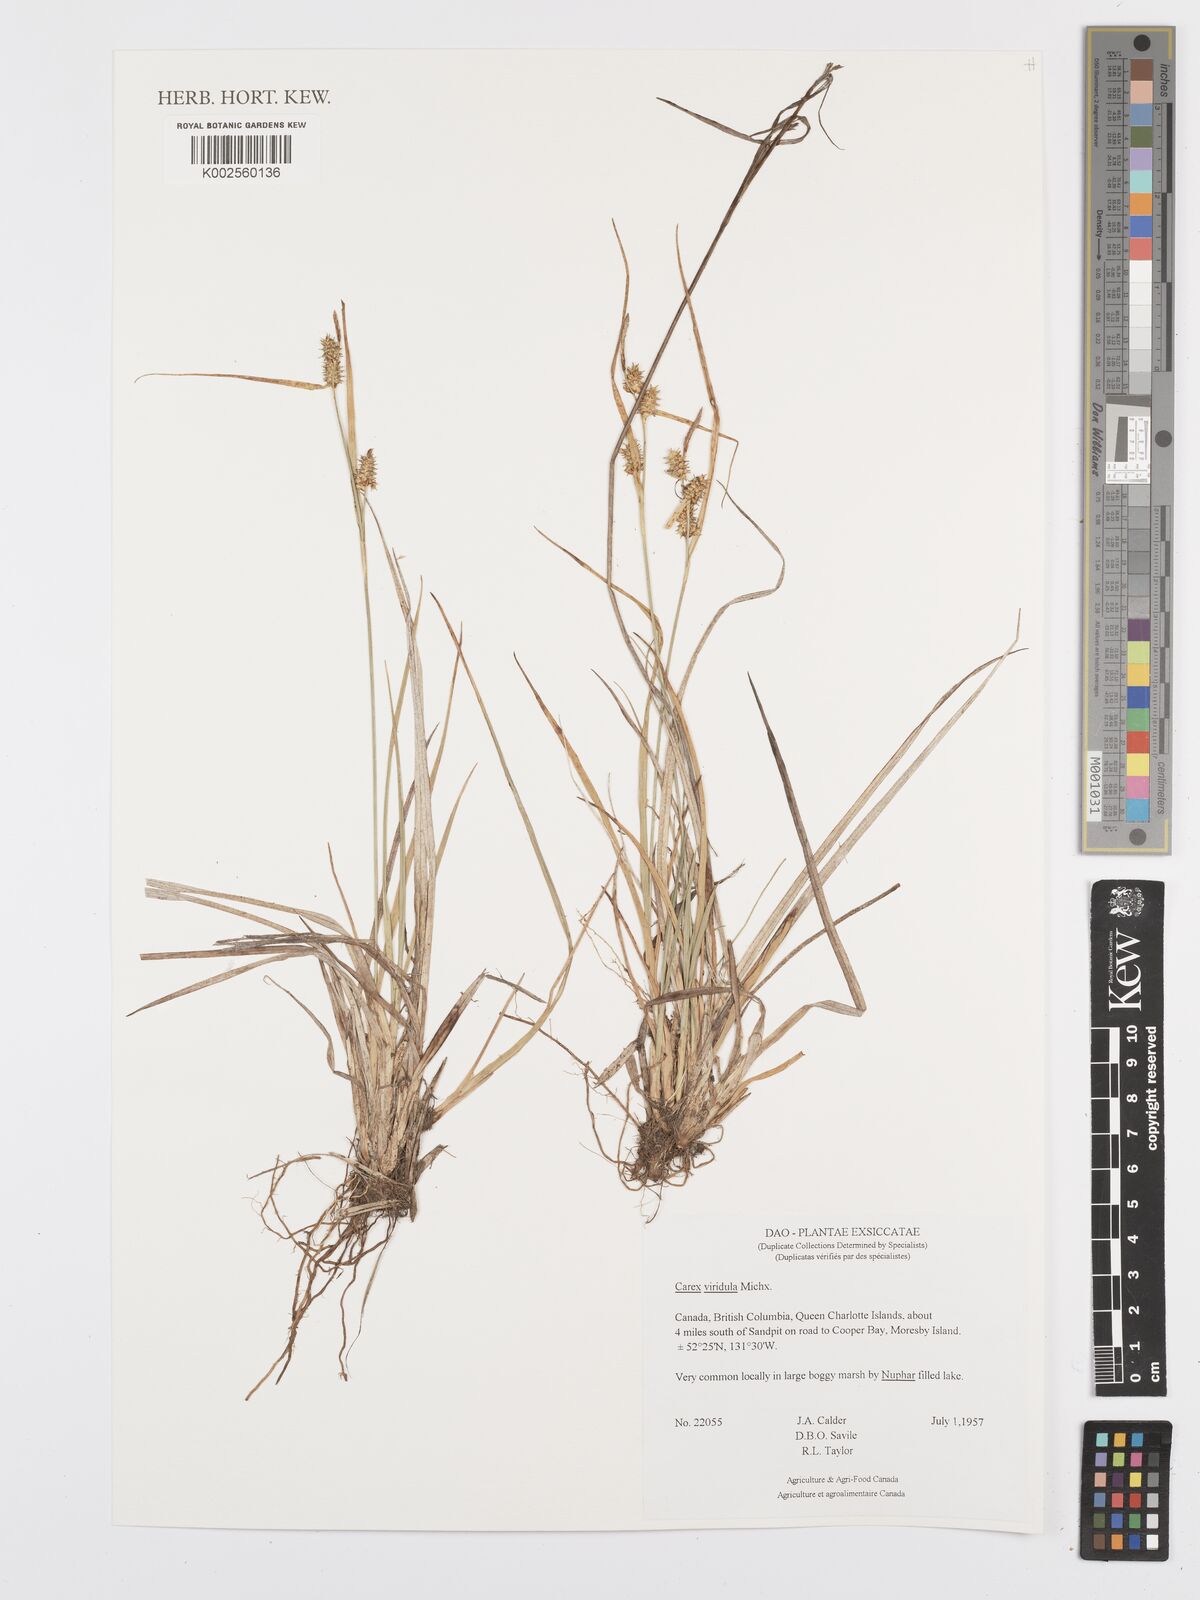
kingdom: Plantae
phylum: Tracheophyta
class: Liliopsida
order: Poales
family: Cyperaceae
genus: Carex
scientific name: Carex oederi
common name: Common & small-fruited yellow-sedge
